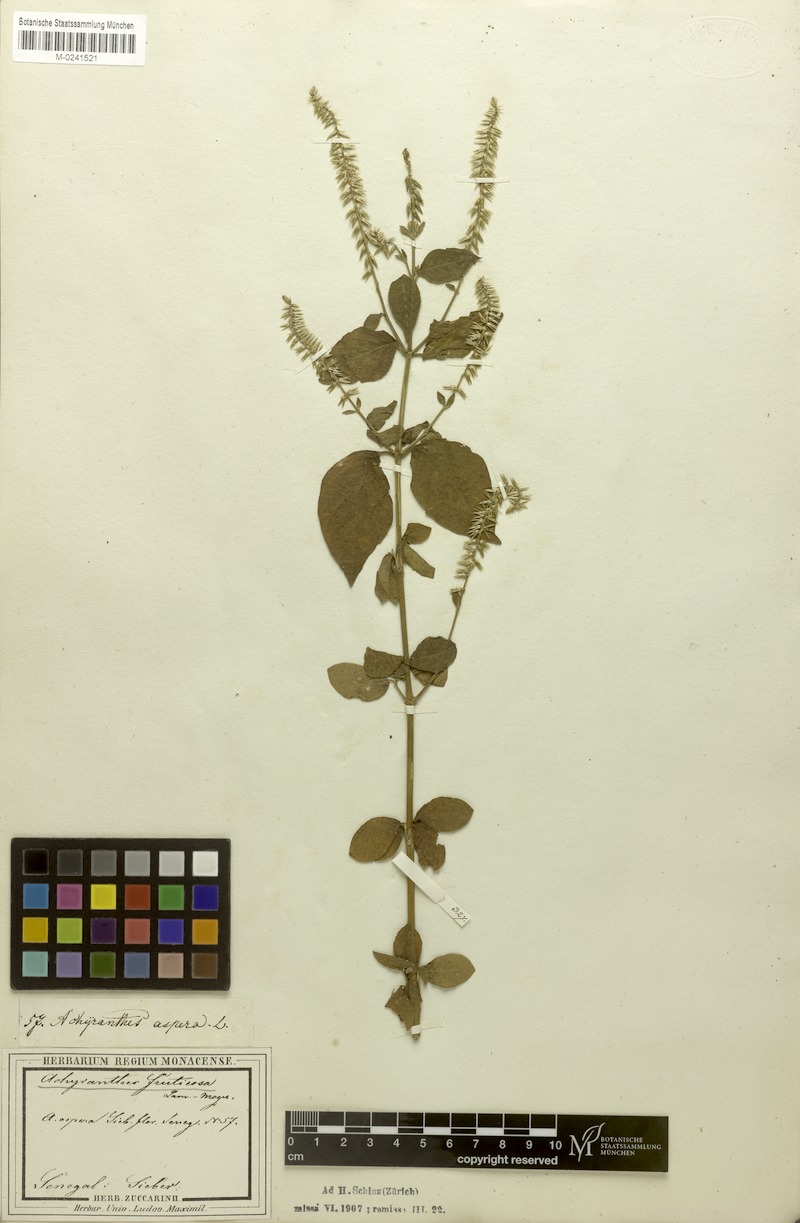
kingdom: Plantae
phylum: Tracheophyta
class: Magnoliopsida
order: Caryophyllales
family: Amaranthaceae
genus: Achyranthes
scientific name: Achyranthes aspera
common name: Devil's horsewhip
